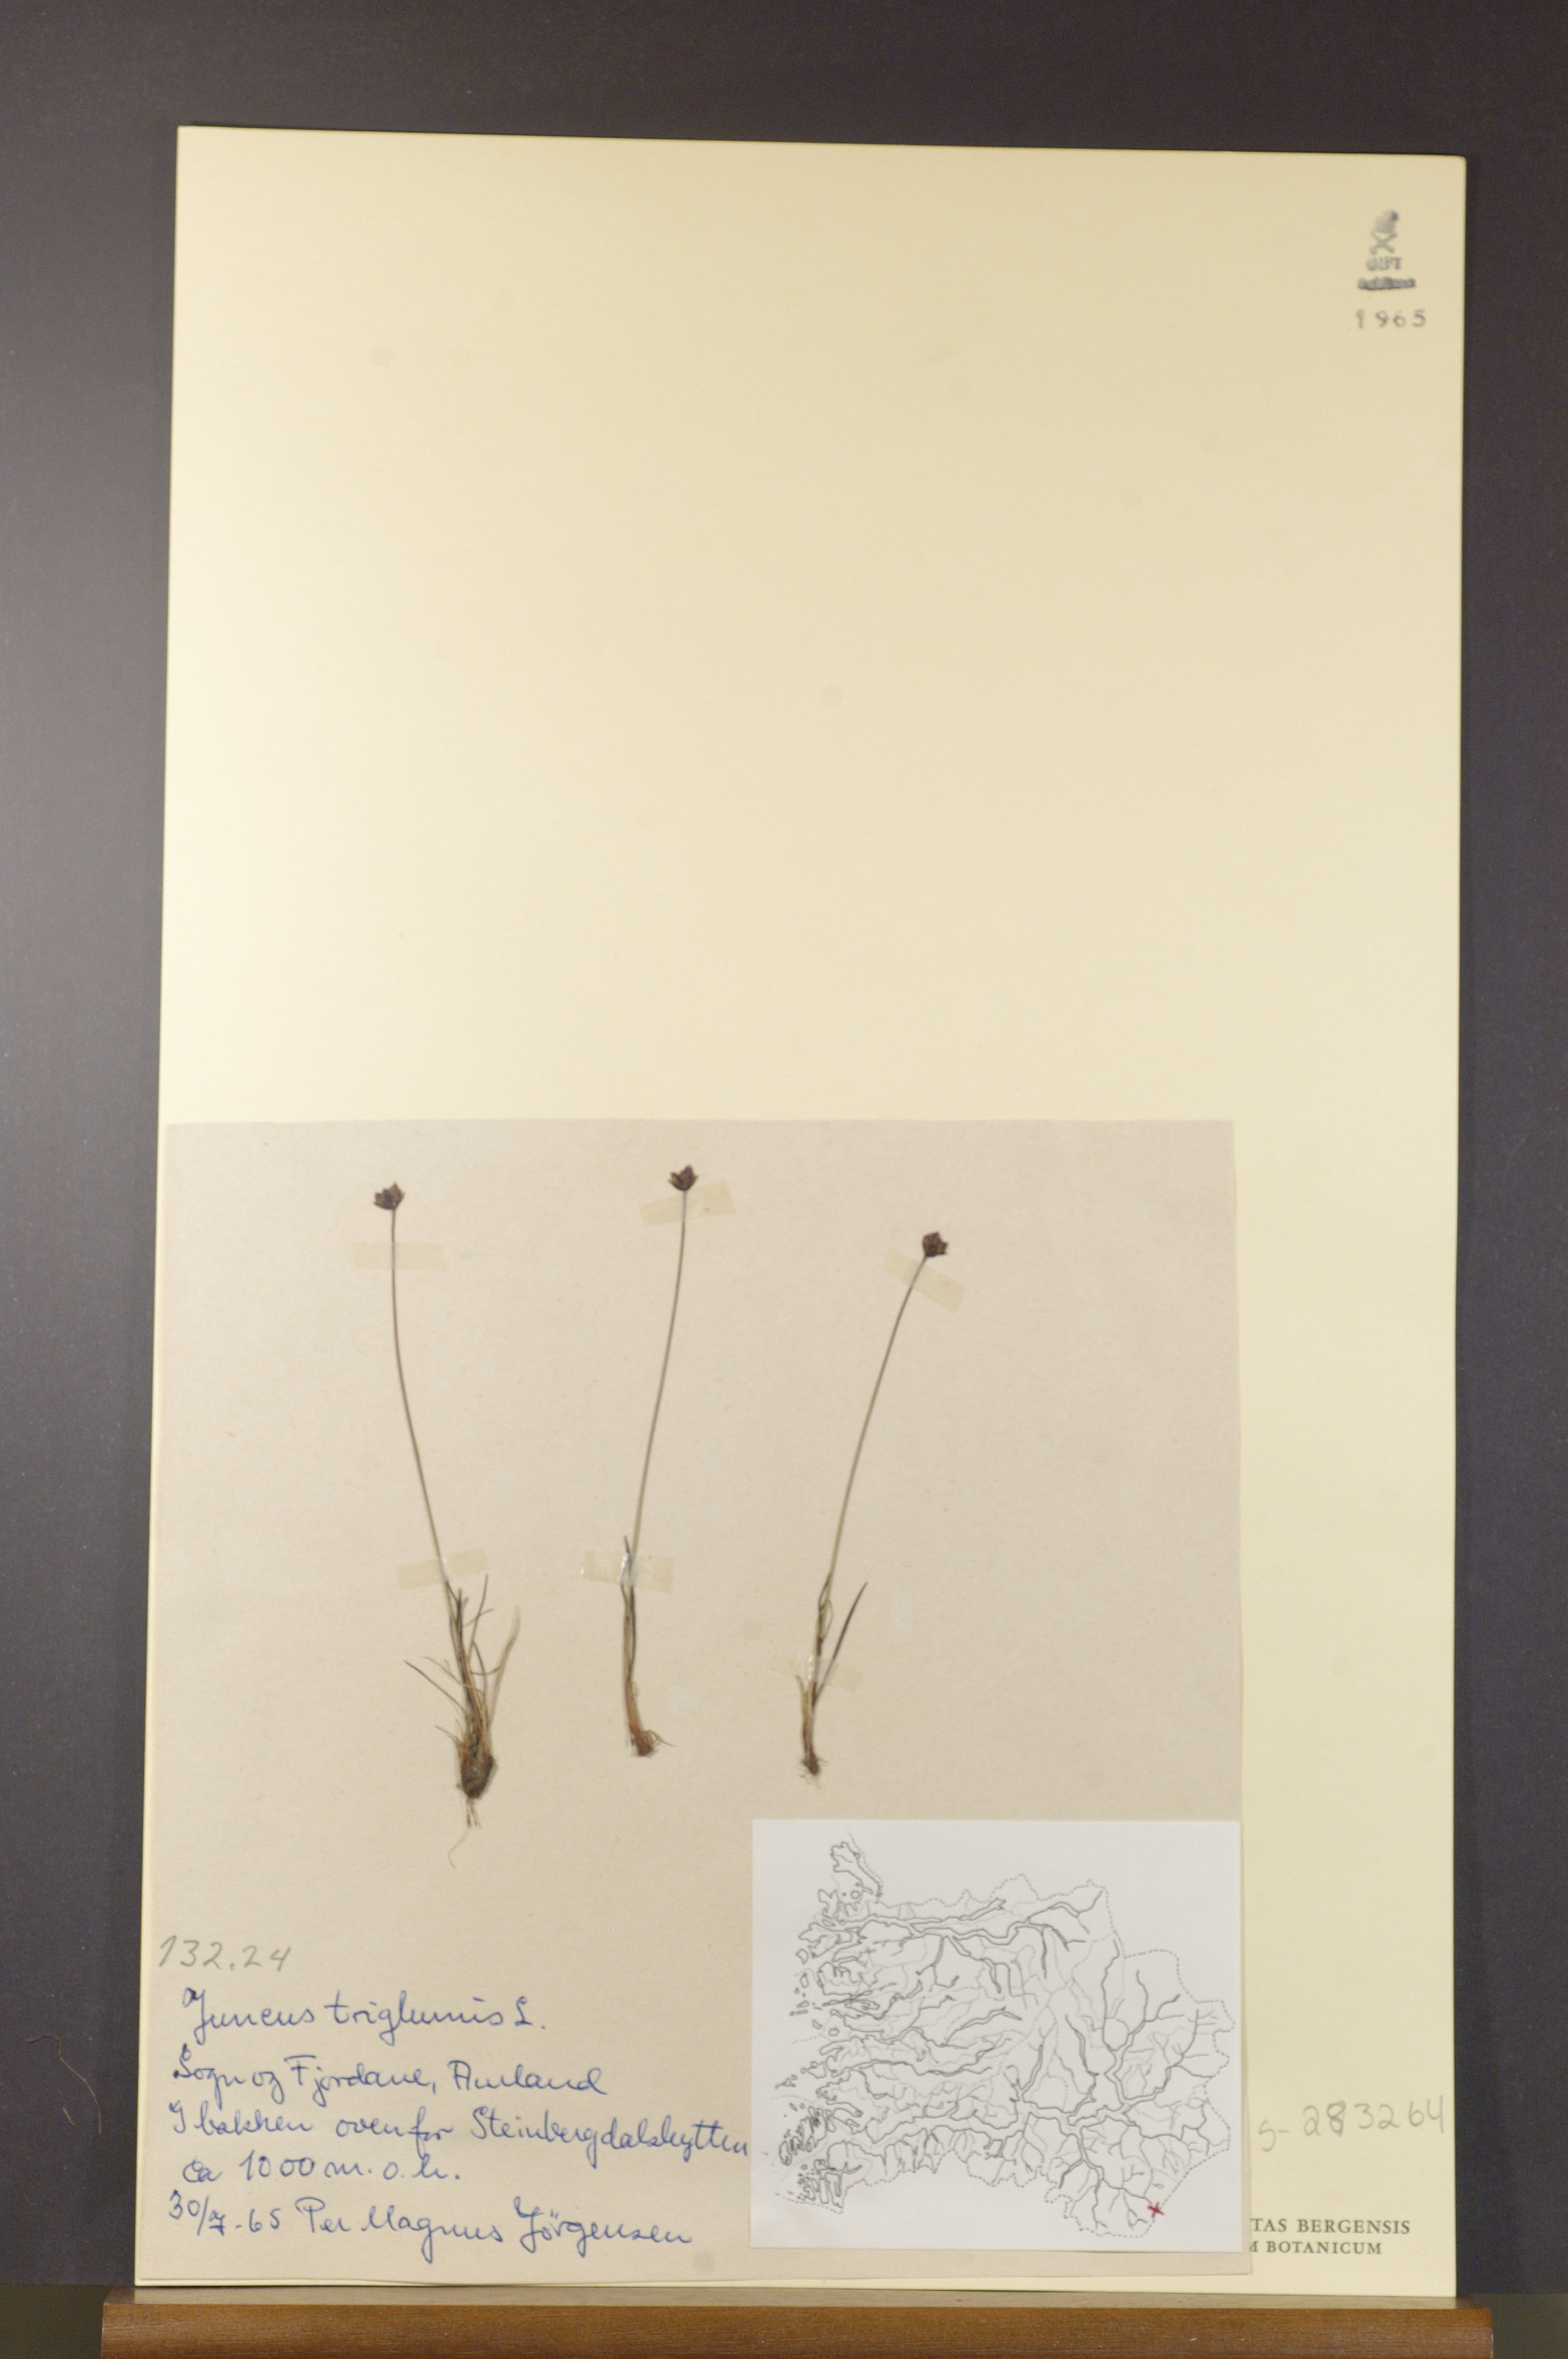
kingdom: Plantae
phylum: Tracheophyta
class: Liliopsida
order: Poales
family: Juncaceae
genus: Juncus
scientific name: Juncus triglumis
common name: Three-flowered rush
